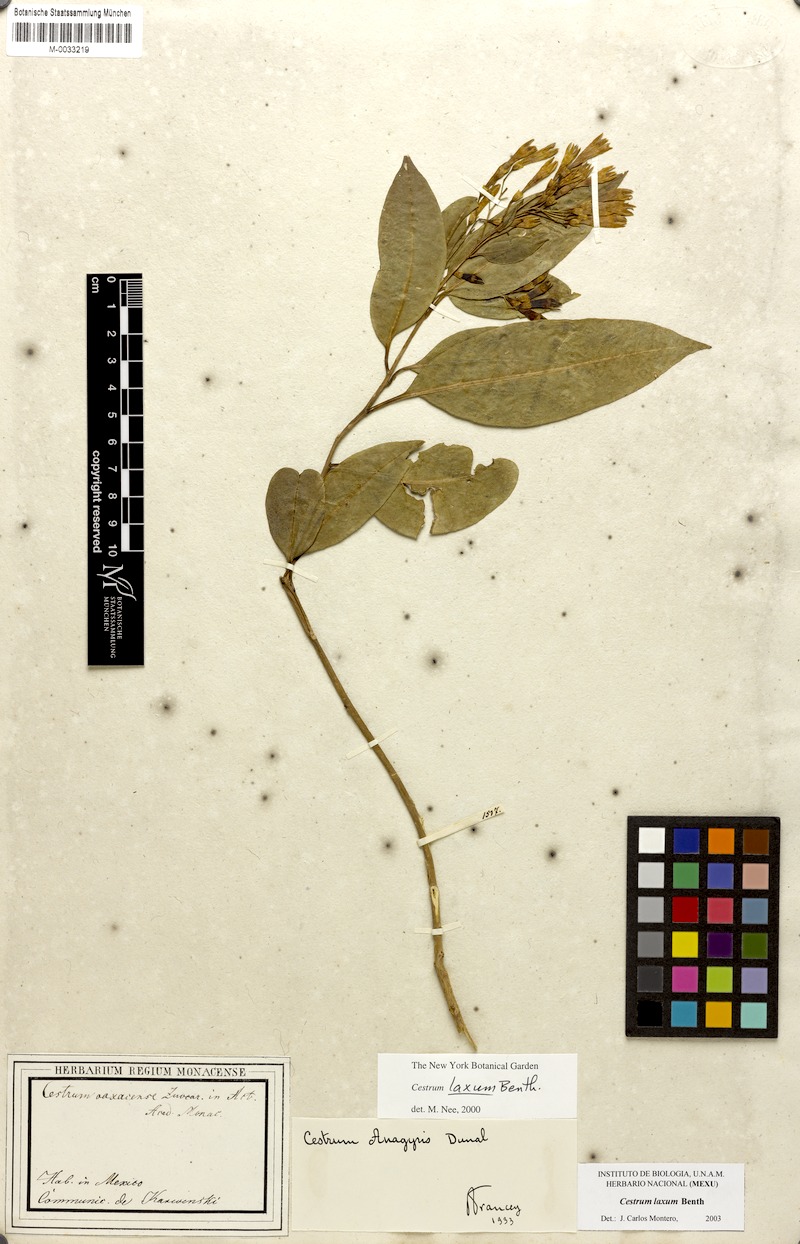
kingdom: Plantae
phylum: Tracheophyta
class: Magnoliopsida
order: Solanales
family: Solanaceae
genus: Cestrum
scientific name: Cestrum laxum
